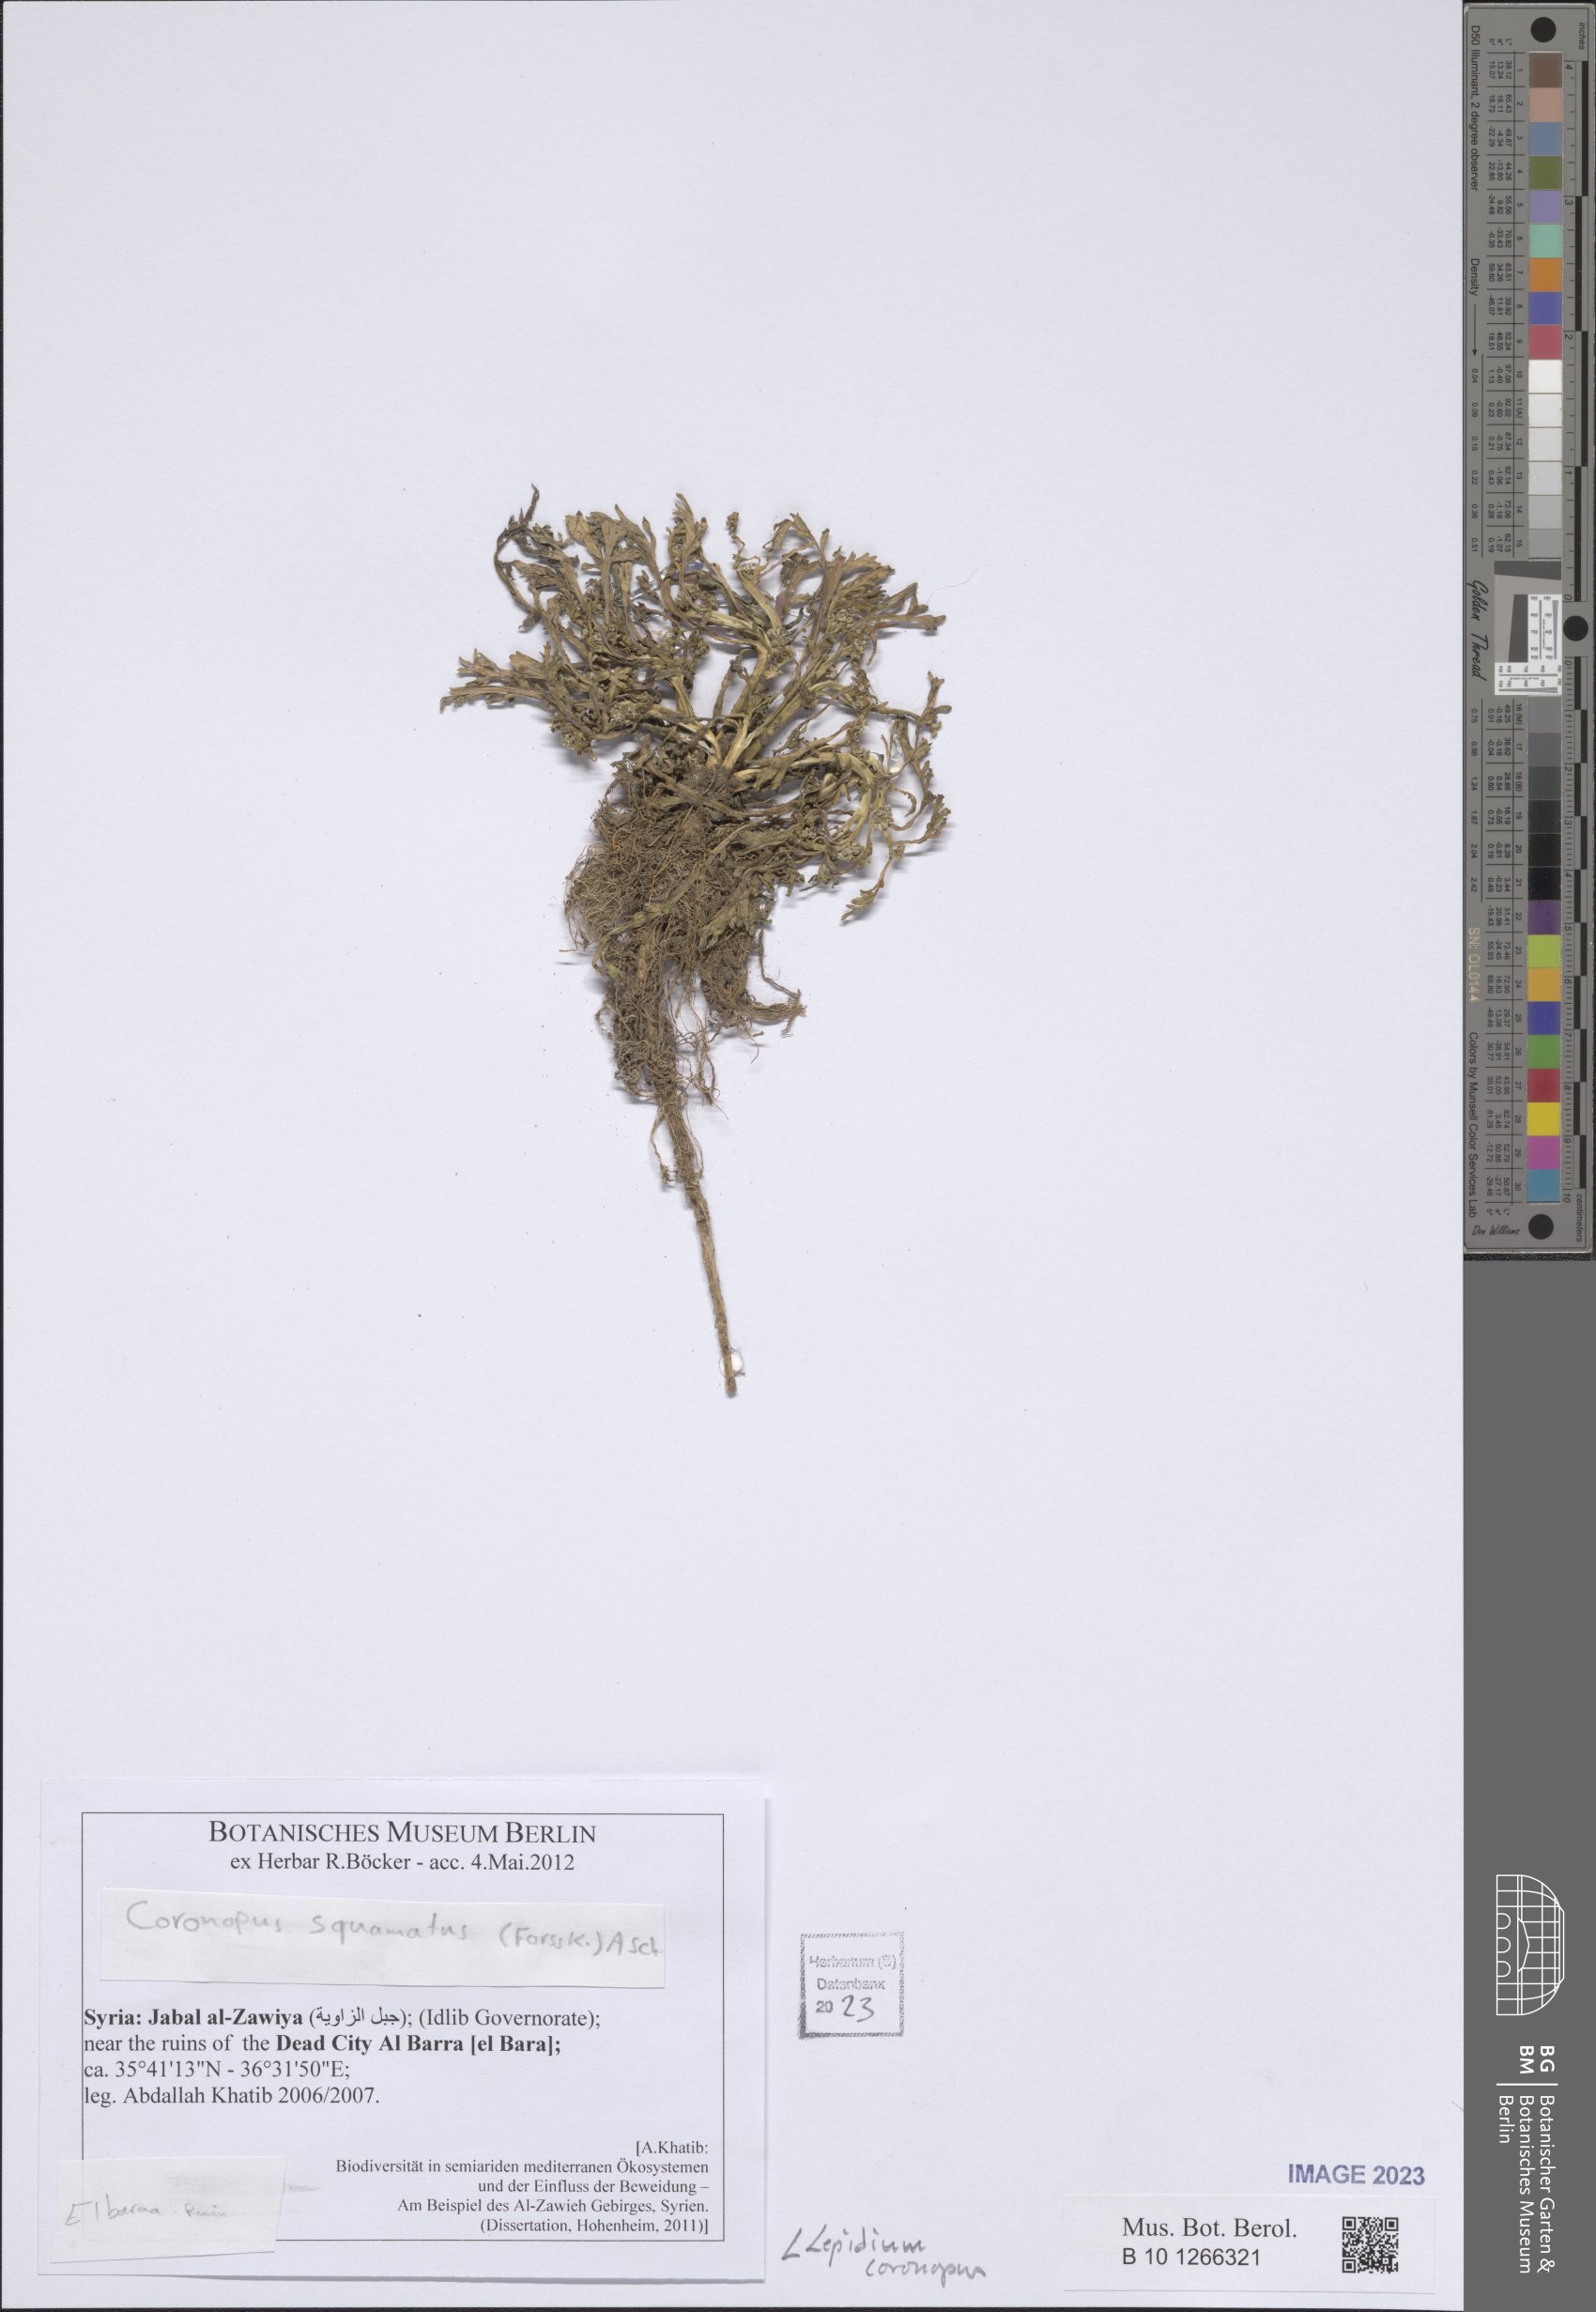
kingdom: Plantae
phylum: Tracheophyta
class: Magnoliopsida
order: Brassicales
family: Brassicaceae
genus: Lepidium
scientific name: Lepidium coronopus
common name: Greater swinecress
